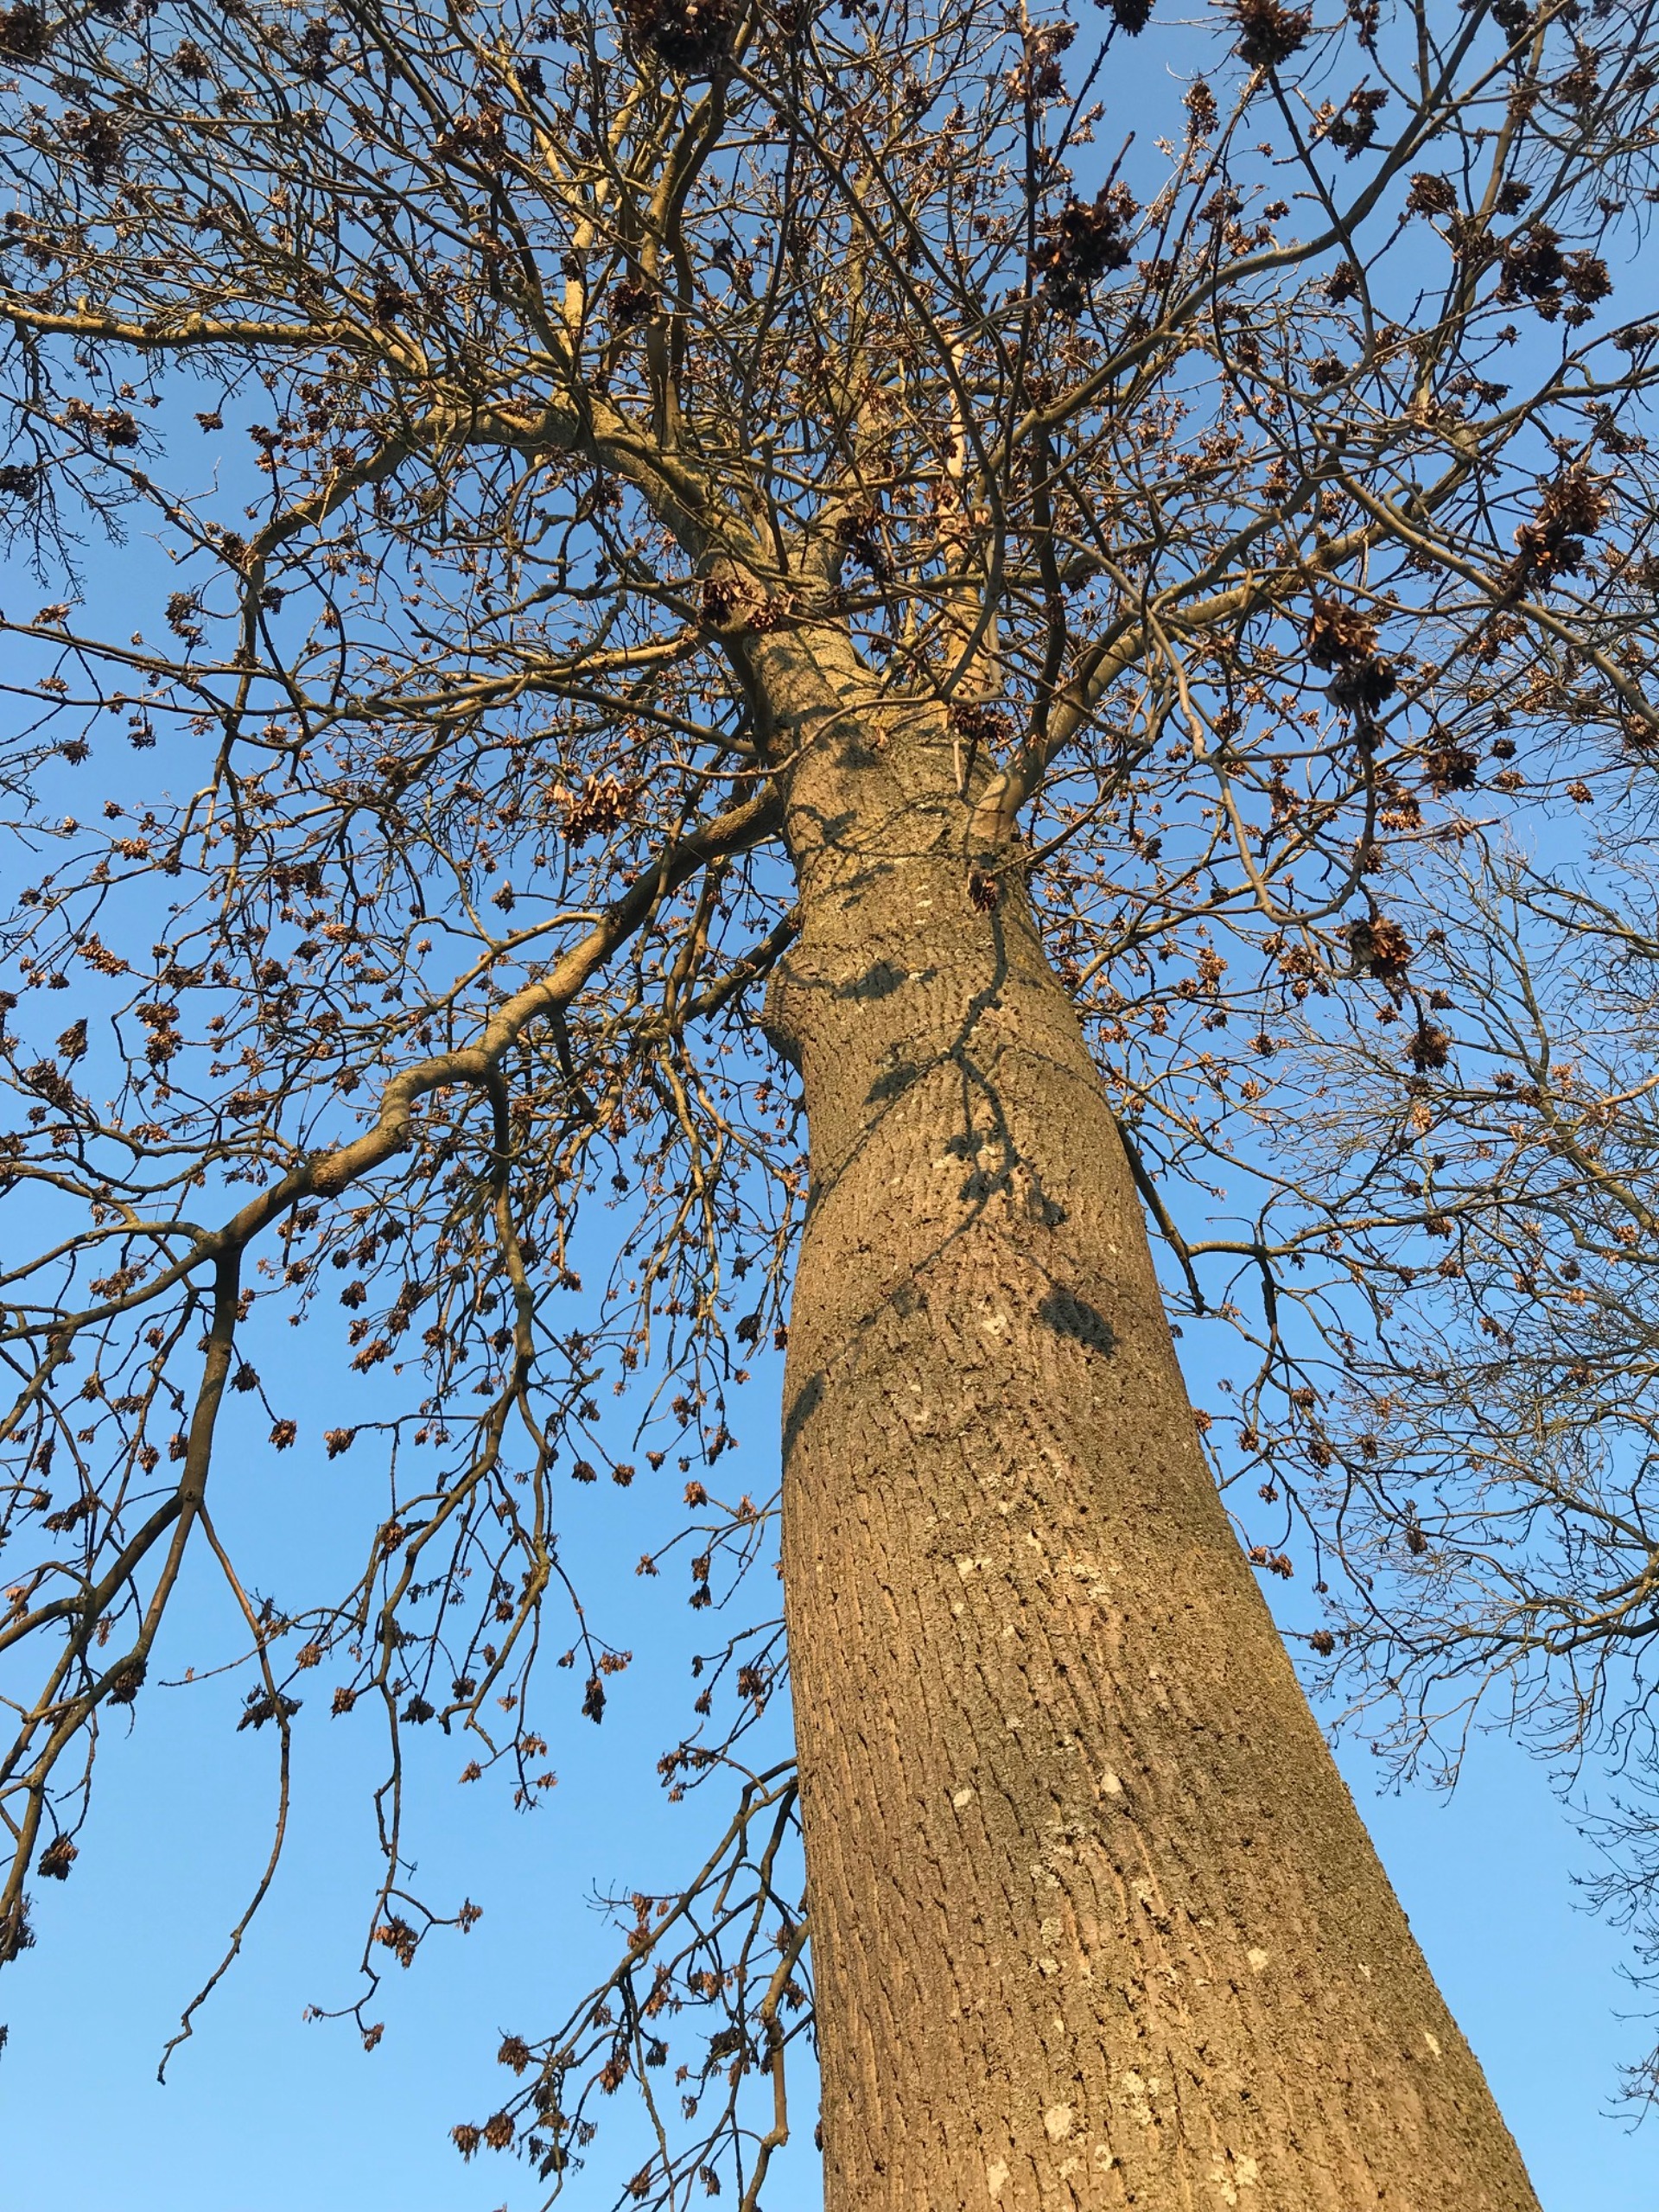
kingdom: Plantae
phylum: Tracheophyta
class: Magnoliopsida
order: Lamiales
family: Oleaceae
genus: Fraxinus
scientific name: Fraxinus excelsior
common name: Ask
